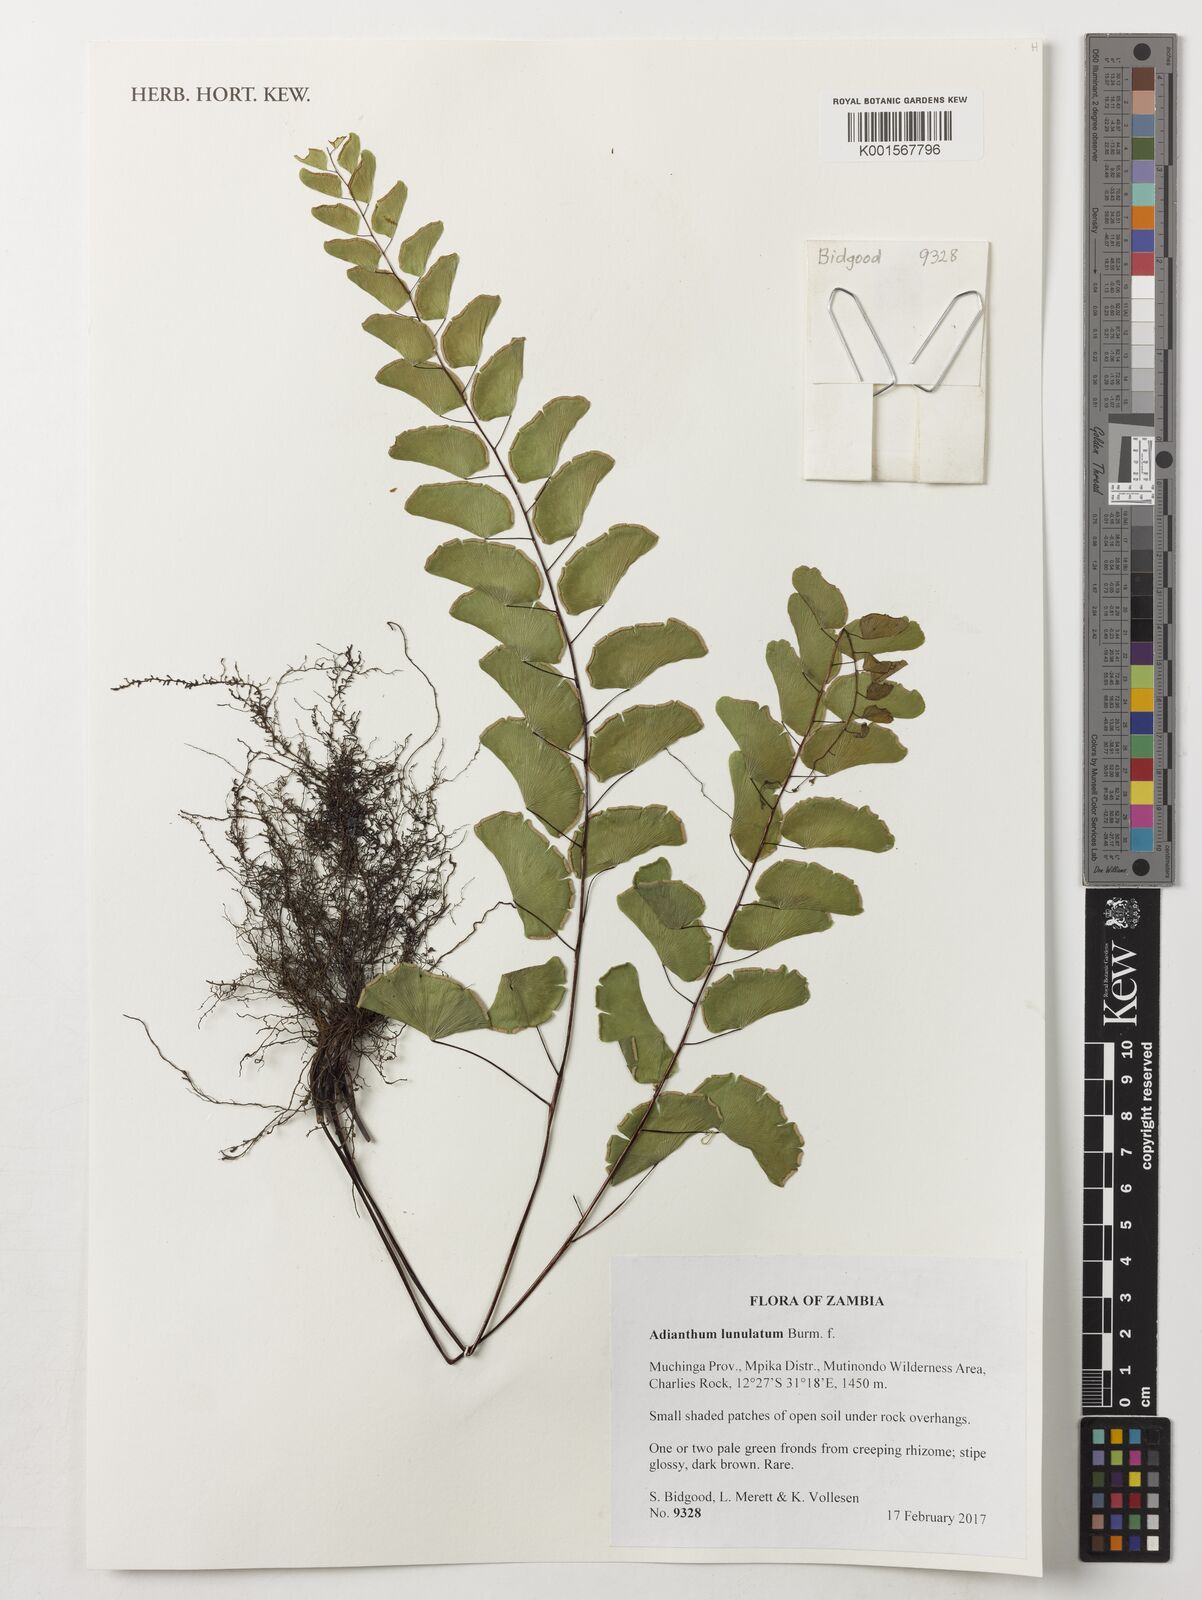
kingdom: Plantae
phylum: Tracheophyta
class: Polypodiopsida
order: Polypodiales
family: Pteridaceae
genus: Adiantum
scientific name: Adiantum philippense
